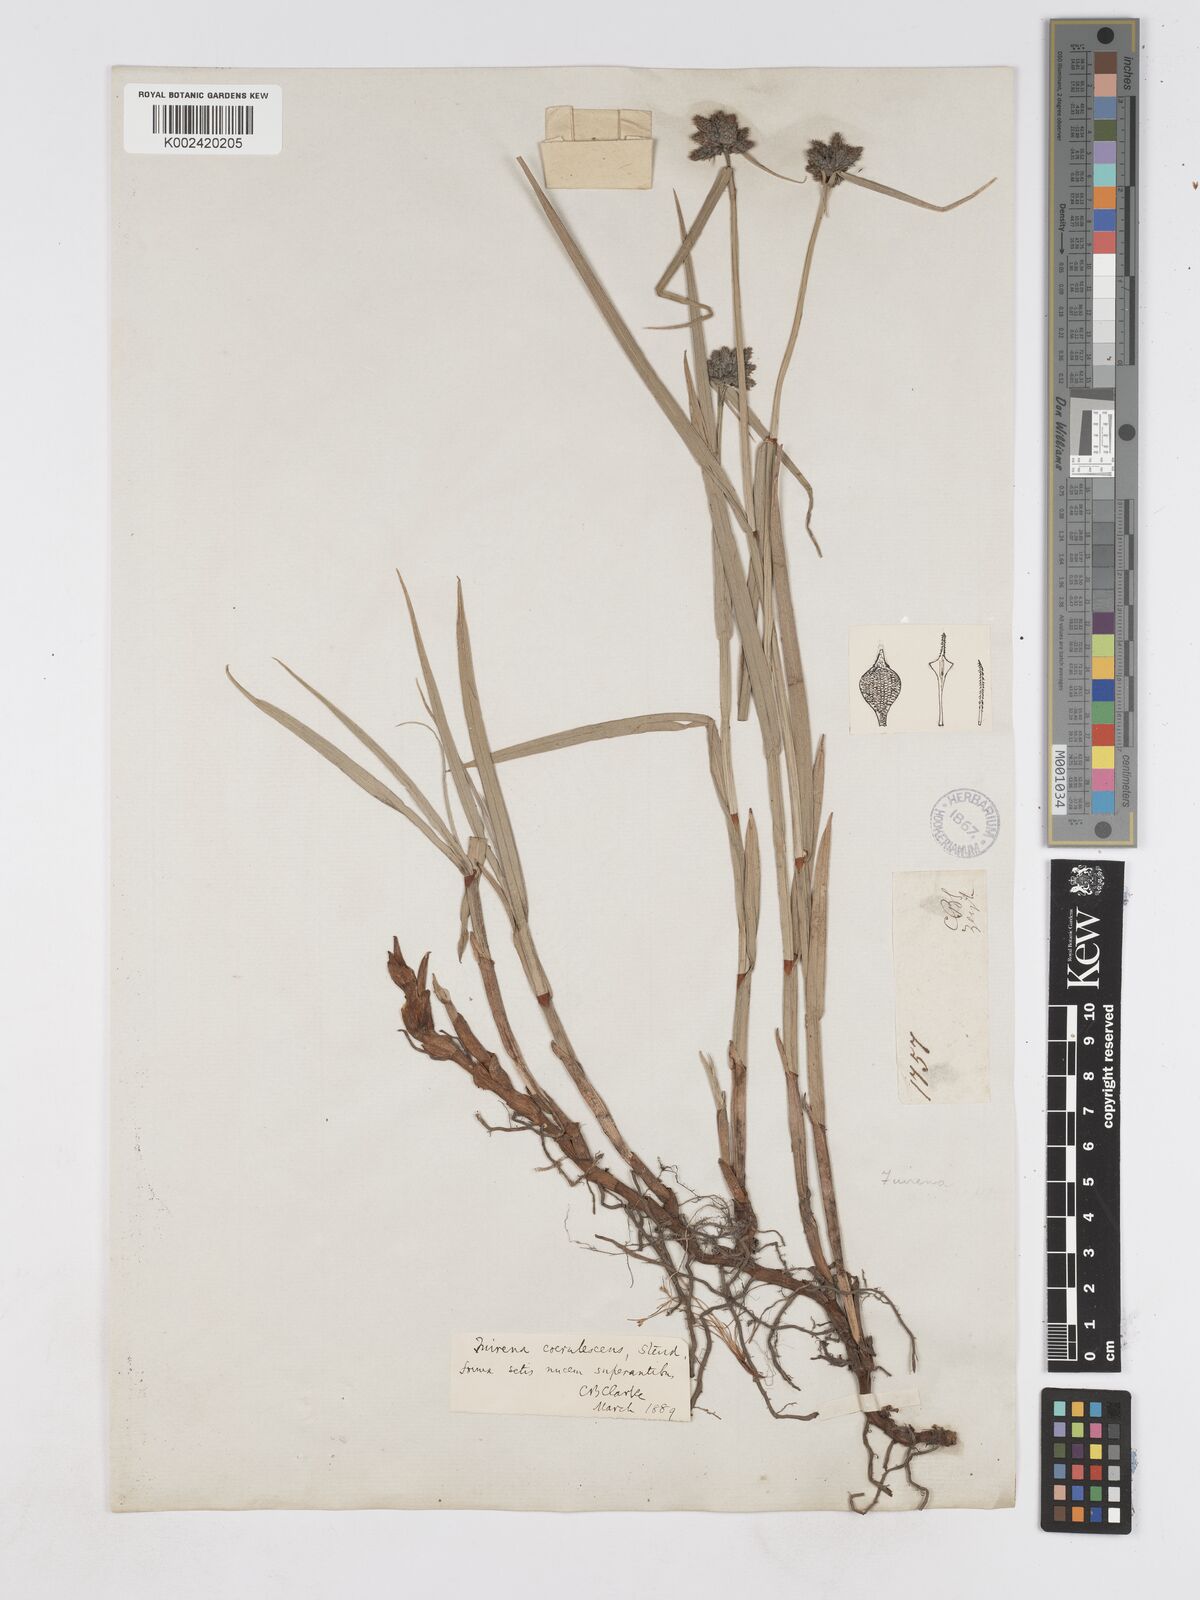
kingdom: Plantae
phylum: Tracheophyta
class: Liliopsida
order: Poales
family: Cyperaceae
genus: Fuirena
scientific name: Fuirena coerulescens
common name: Blue umbrella-sedge
